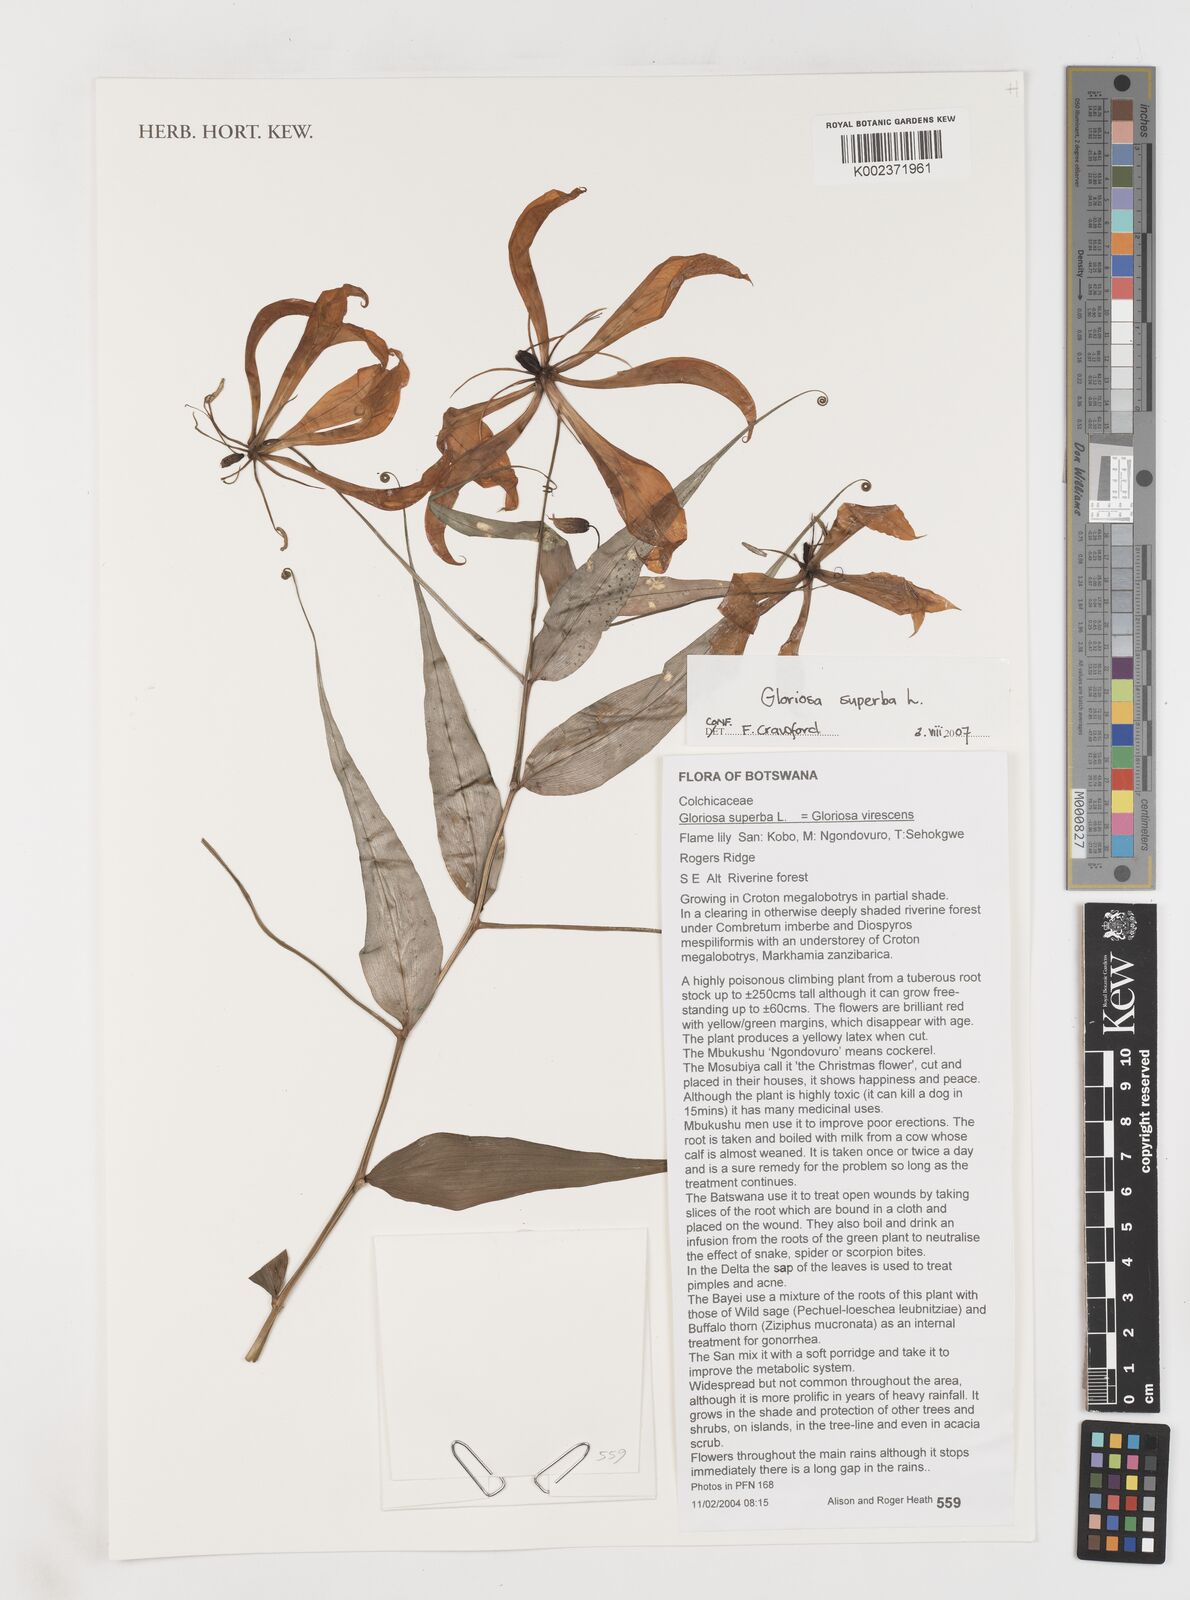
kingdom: Plantae
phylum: Tracheophyta
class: Liliopsida
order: Liliales
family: Colchicaceae
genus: Gloriosa
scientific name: Gloriosa simplex
